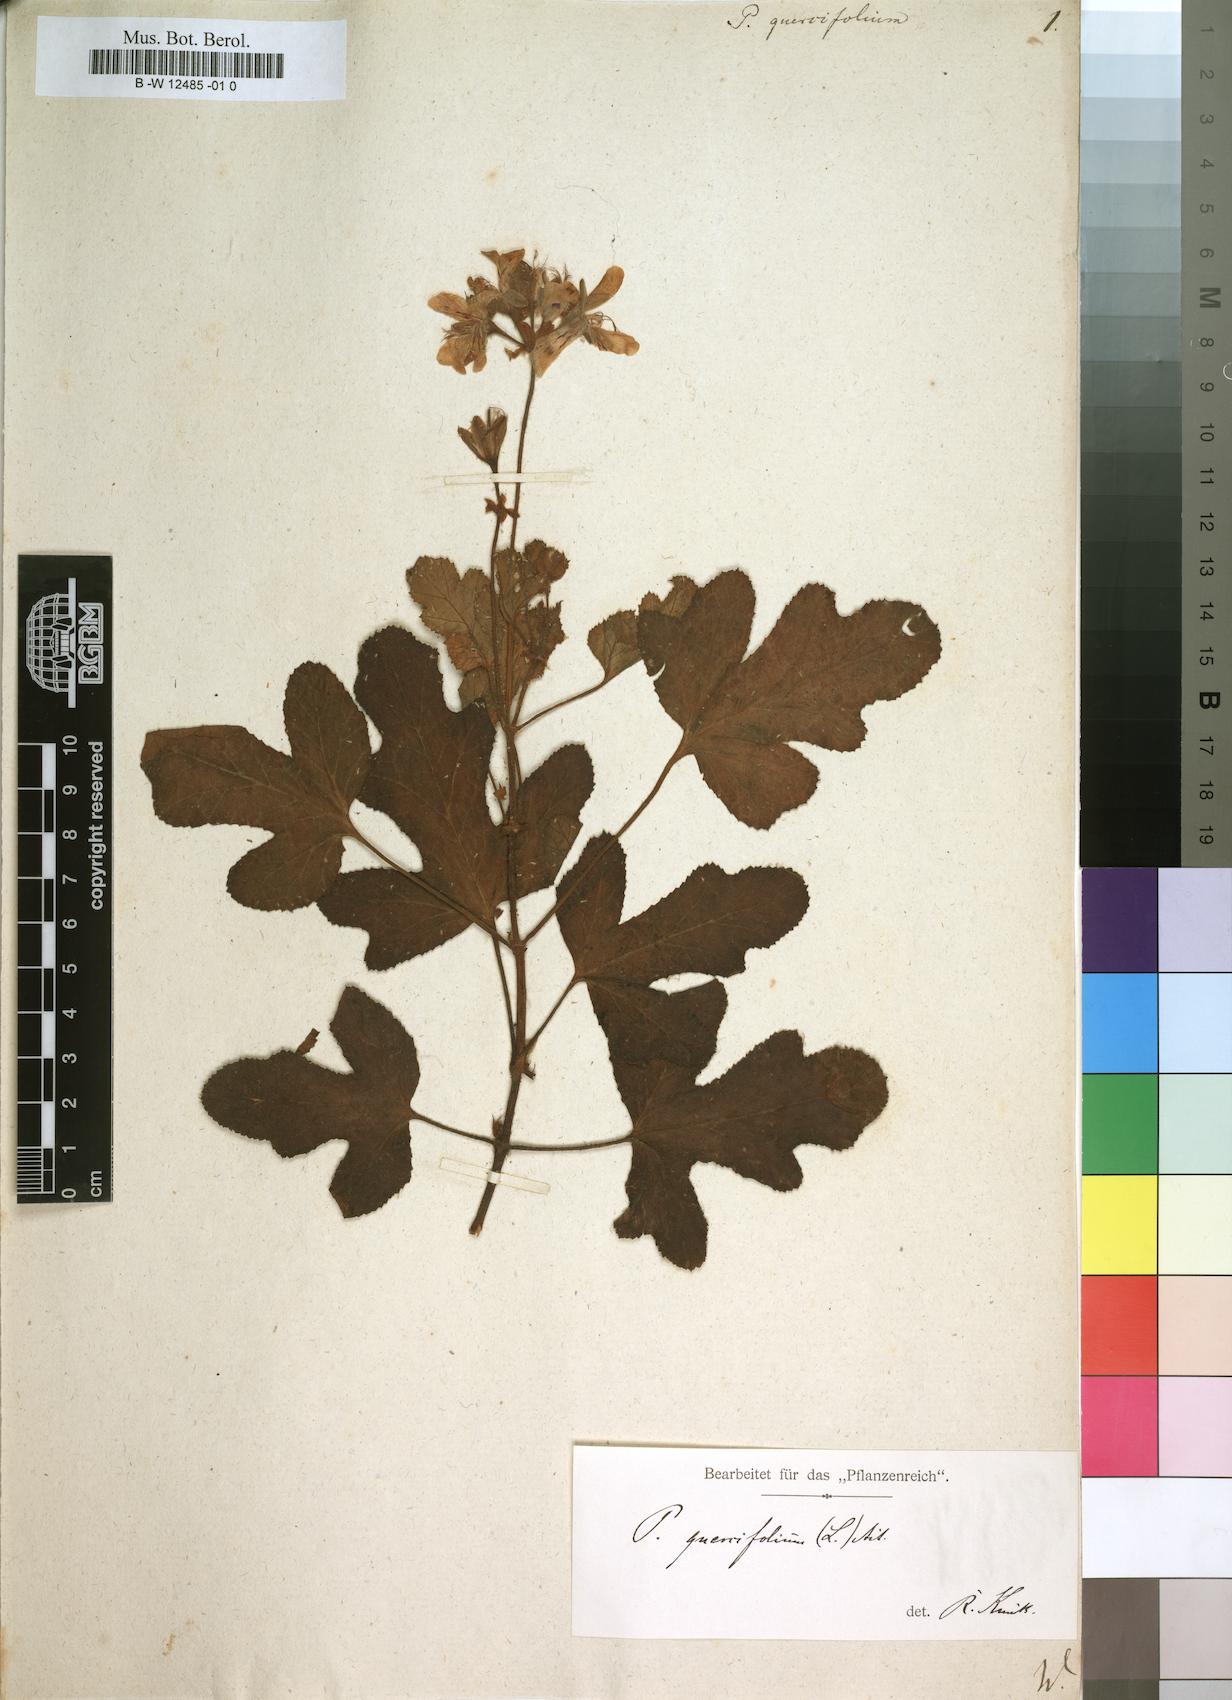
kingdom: Plantae
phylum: Tracheophyta
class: Magnoliopsida
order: Geraniales
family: Geraniaceae
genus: Pelargonium
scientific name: Pelargonium quercifolium
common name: Oakleaf geranium
